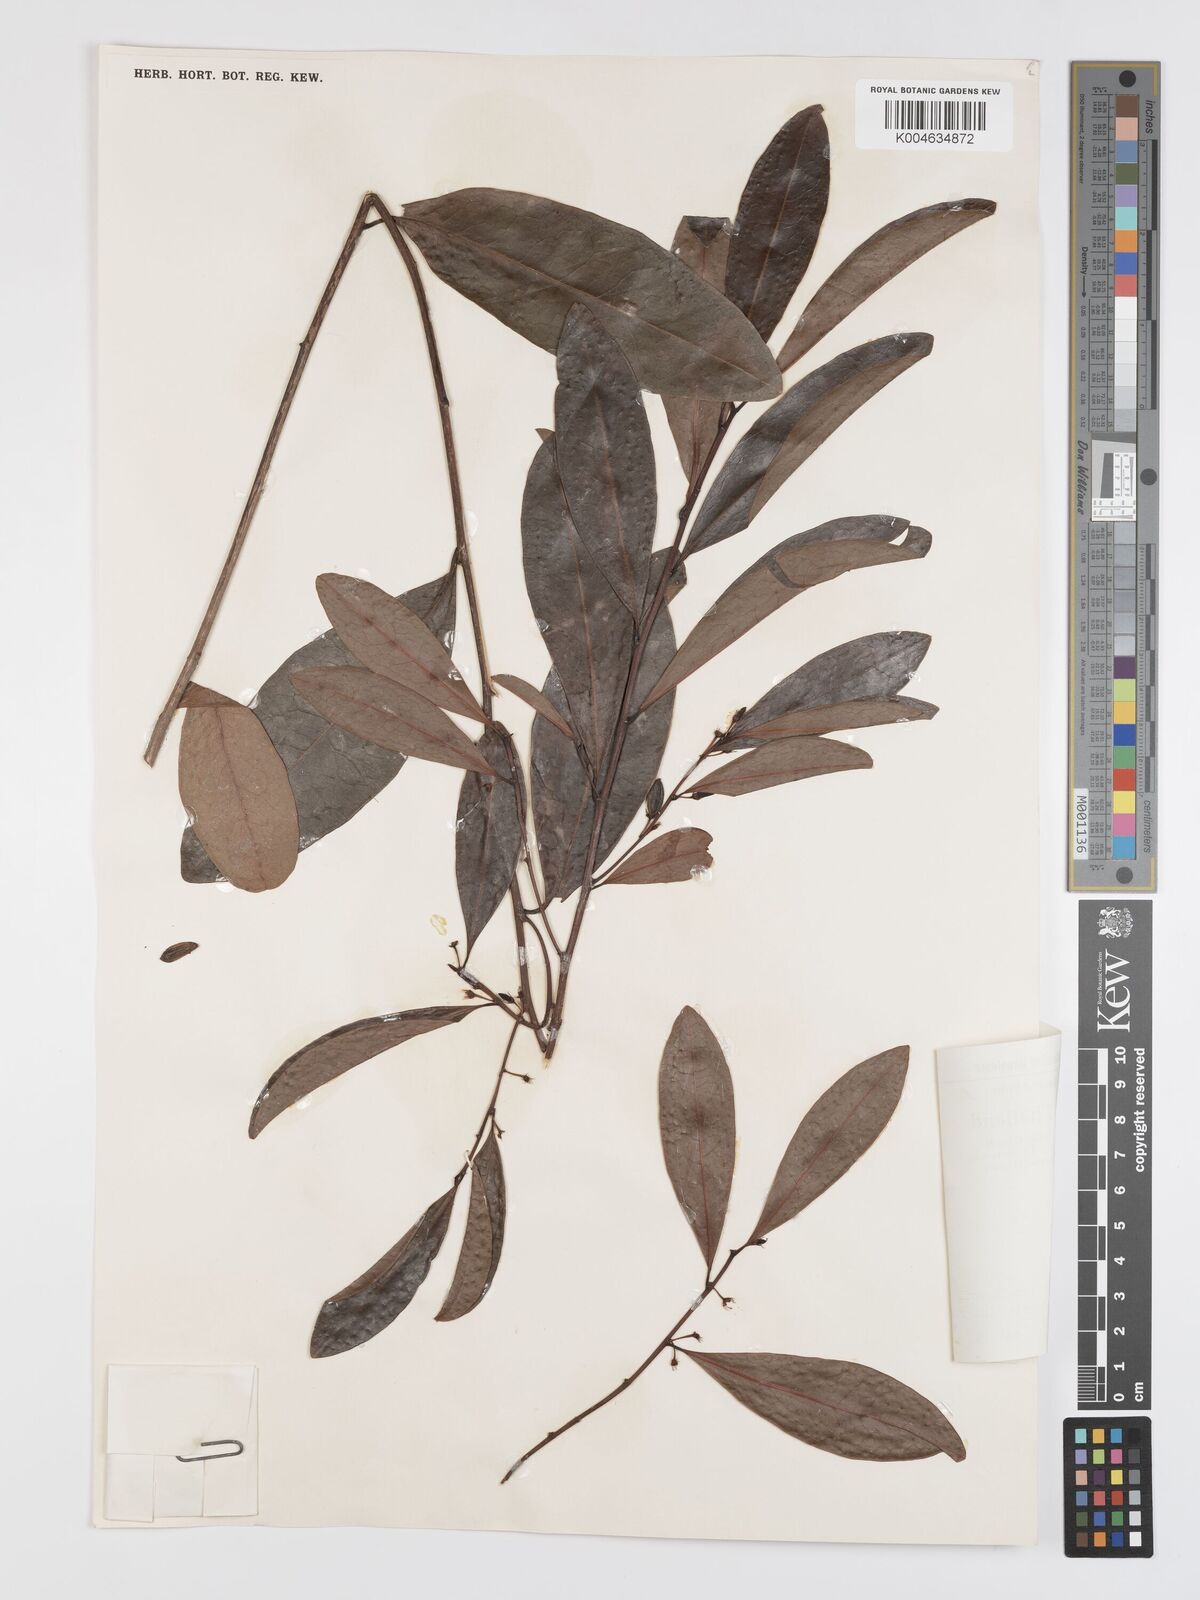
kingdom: Plantae
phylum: Tracheophyta
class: Magnoliopsida
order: Malpighiales
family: Erythroxylaceae
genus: Erythroxylum
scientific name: Erythroxylum cuneatum
